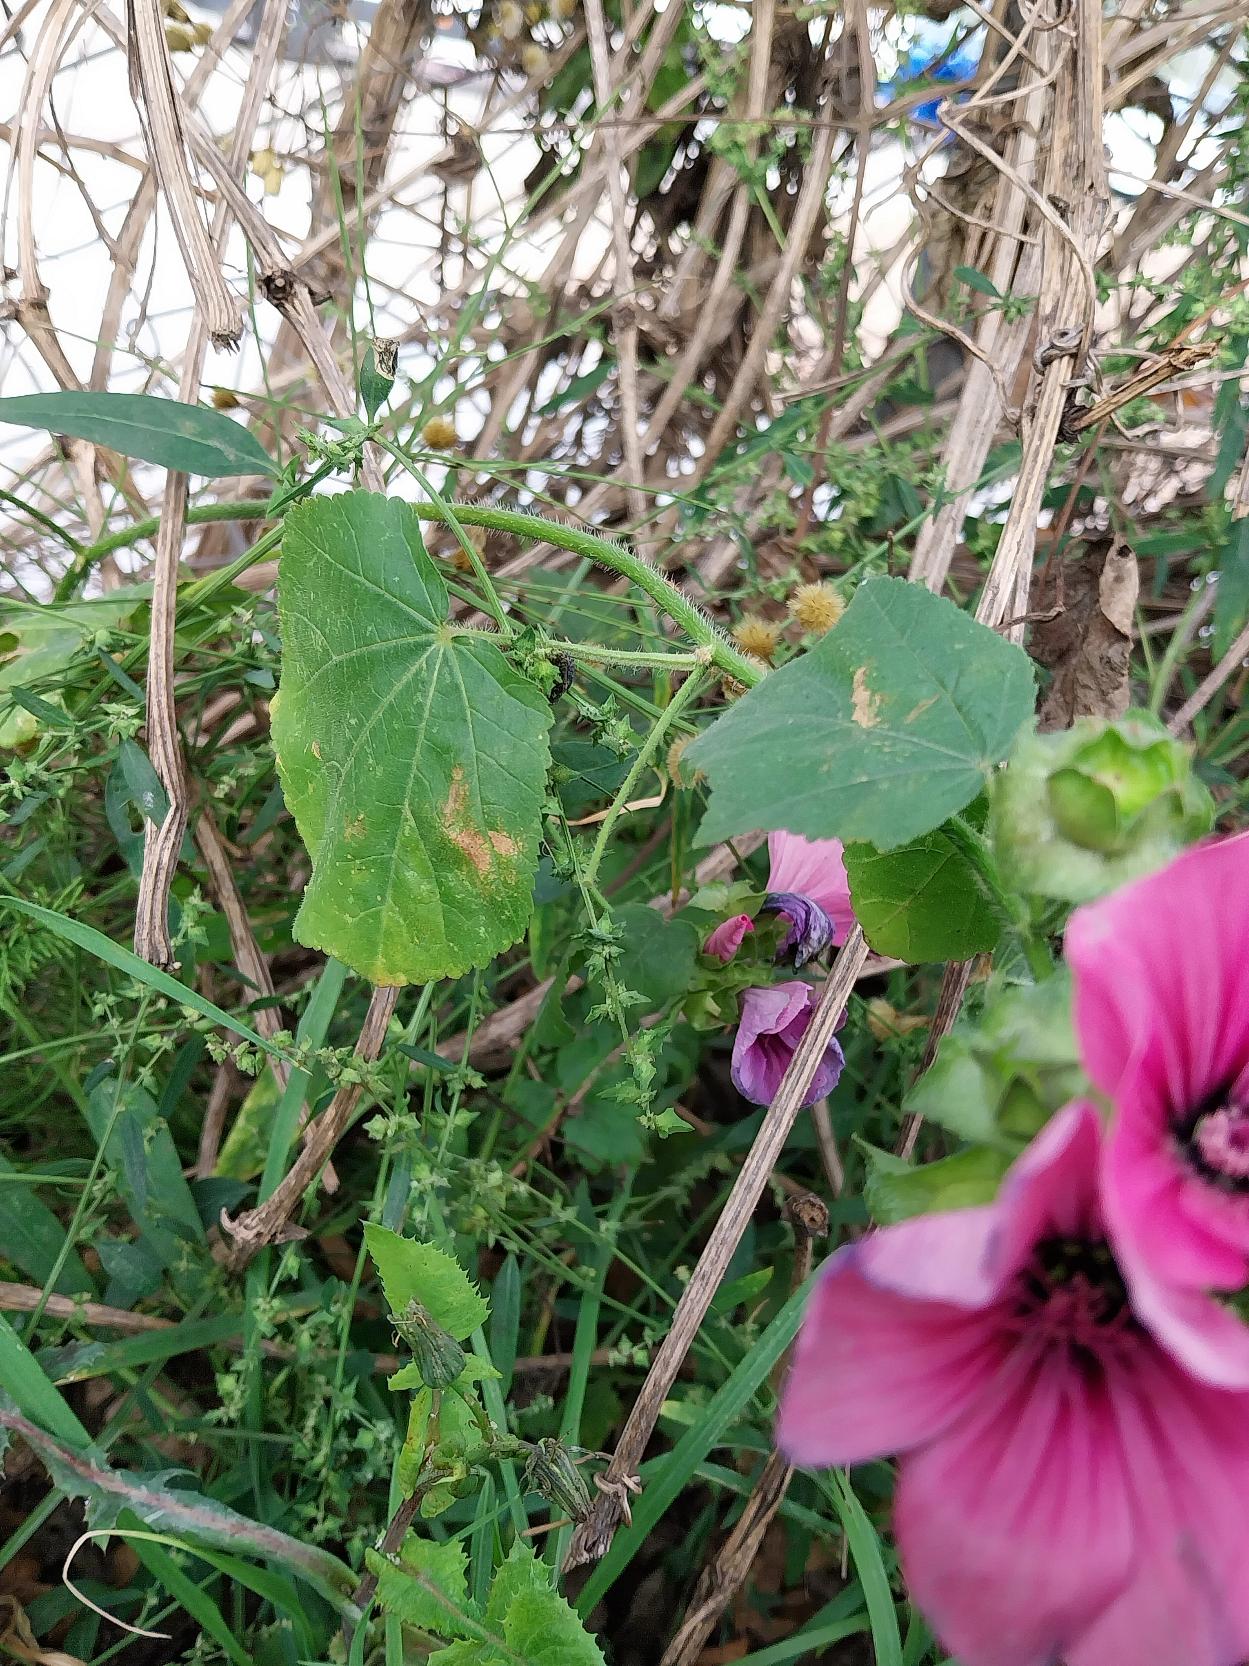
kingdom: Plantae
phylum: Tracheophyta
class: Magnoliopsida
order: Malvales
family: Malvaceae
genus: Malva
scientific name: Malva trimestris
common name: Mamelukærme
